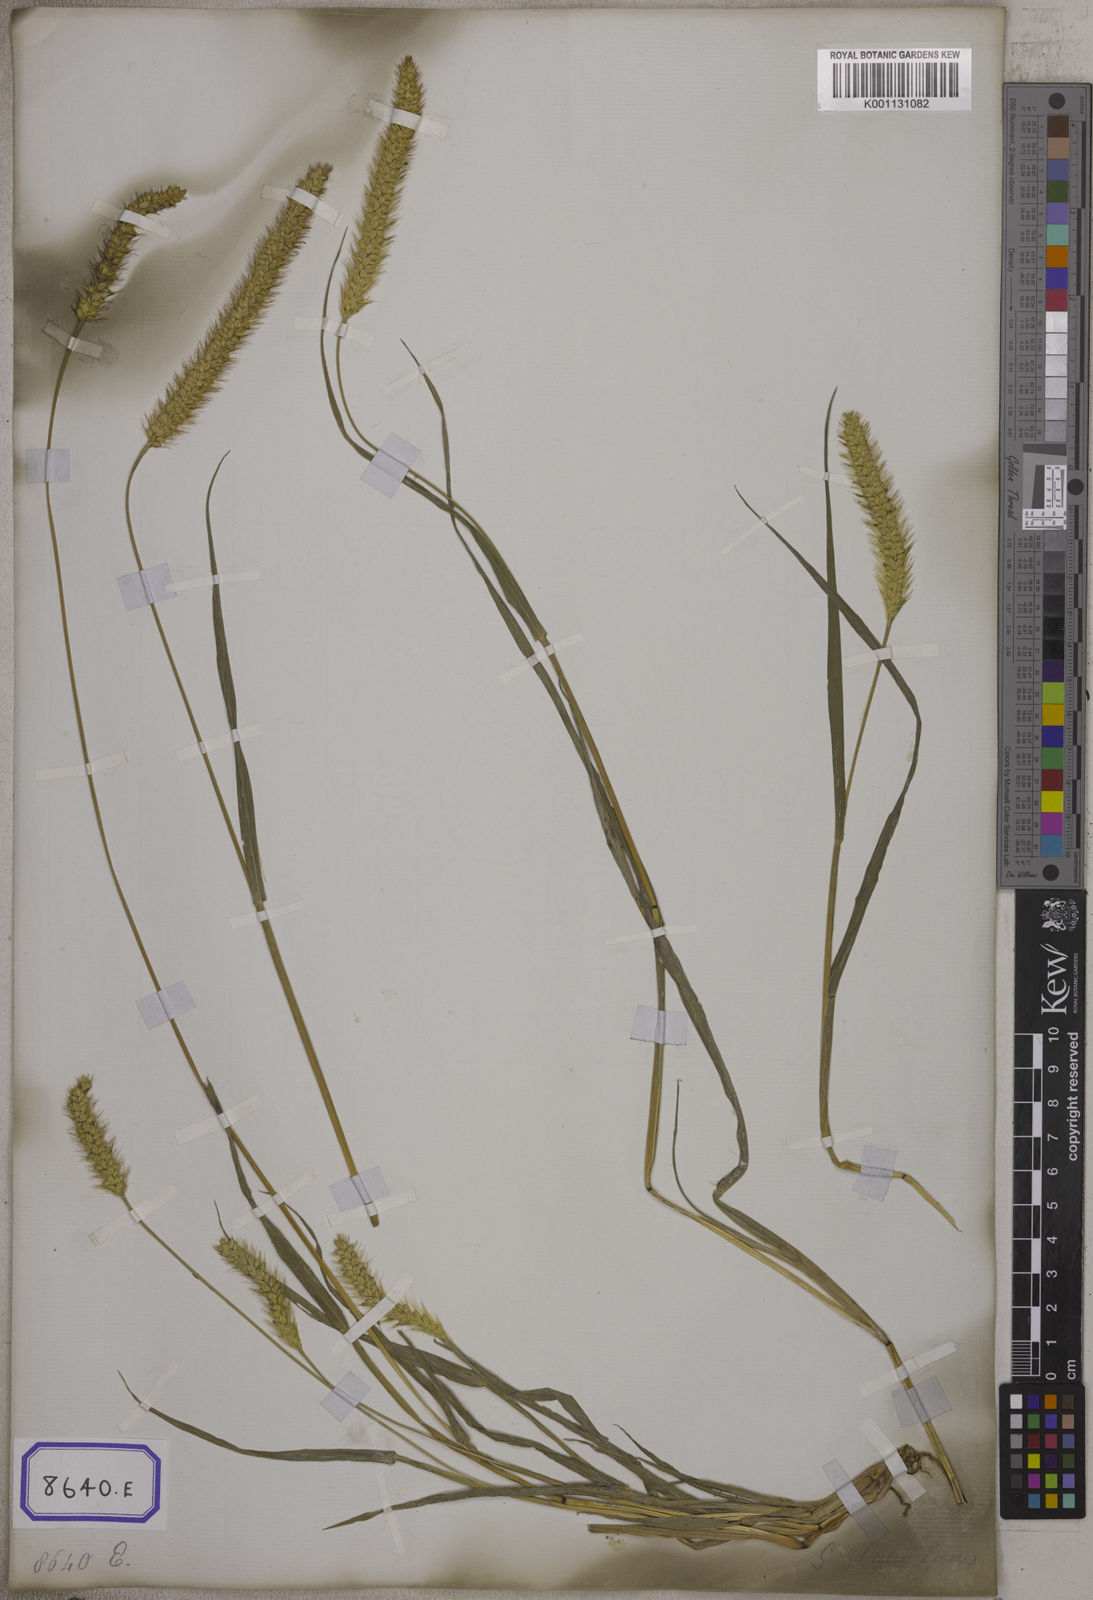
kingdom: Plantae
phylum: Tracheophyta
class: Liliopsida
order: Poales
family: Poaceae
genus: Setaria
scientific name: Setaria pumila
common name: Yellow bristle-grass
